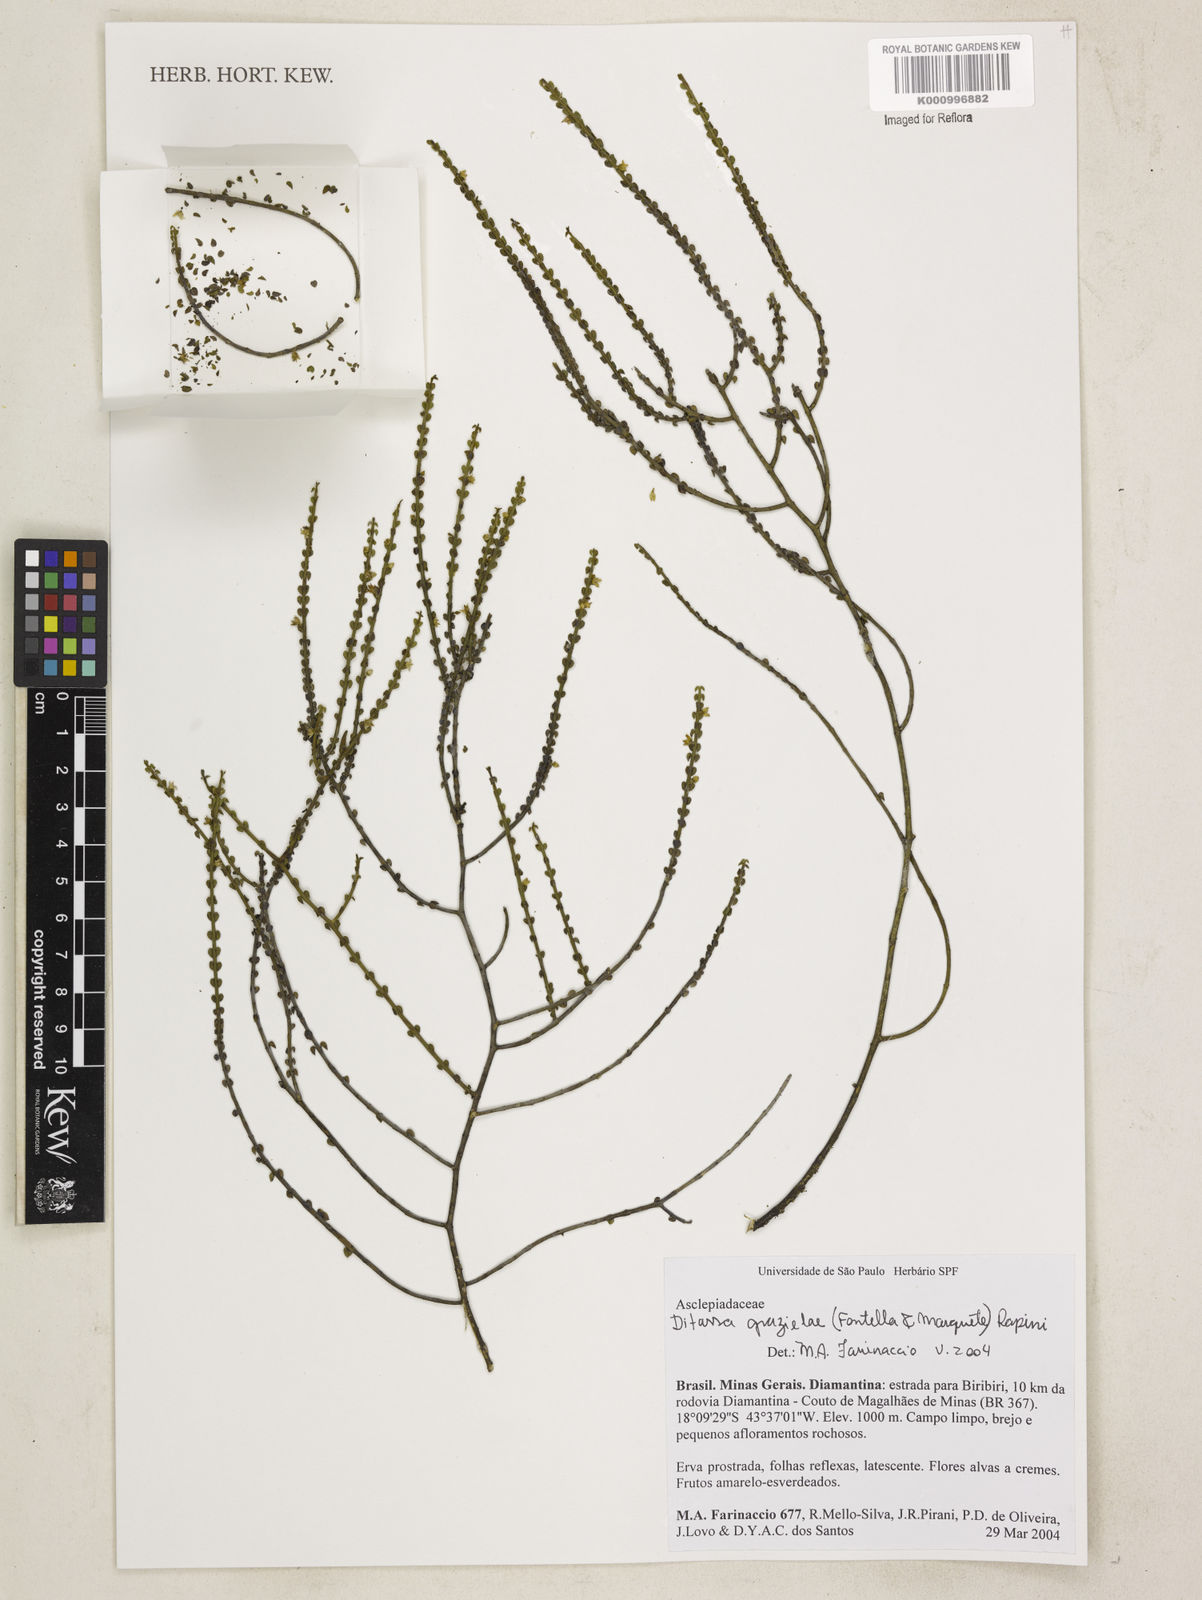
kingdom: Plantae
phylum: Tracheophyta
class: Magnoliopsida
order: Gentianales
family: Apocynaceae
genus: Minaria
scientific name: Minaria grazielae
